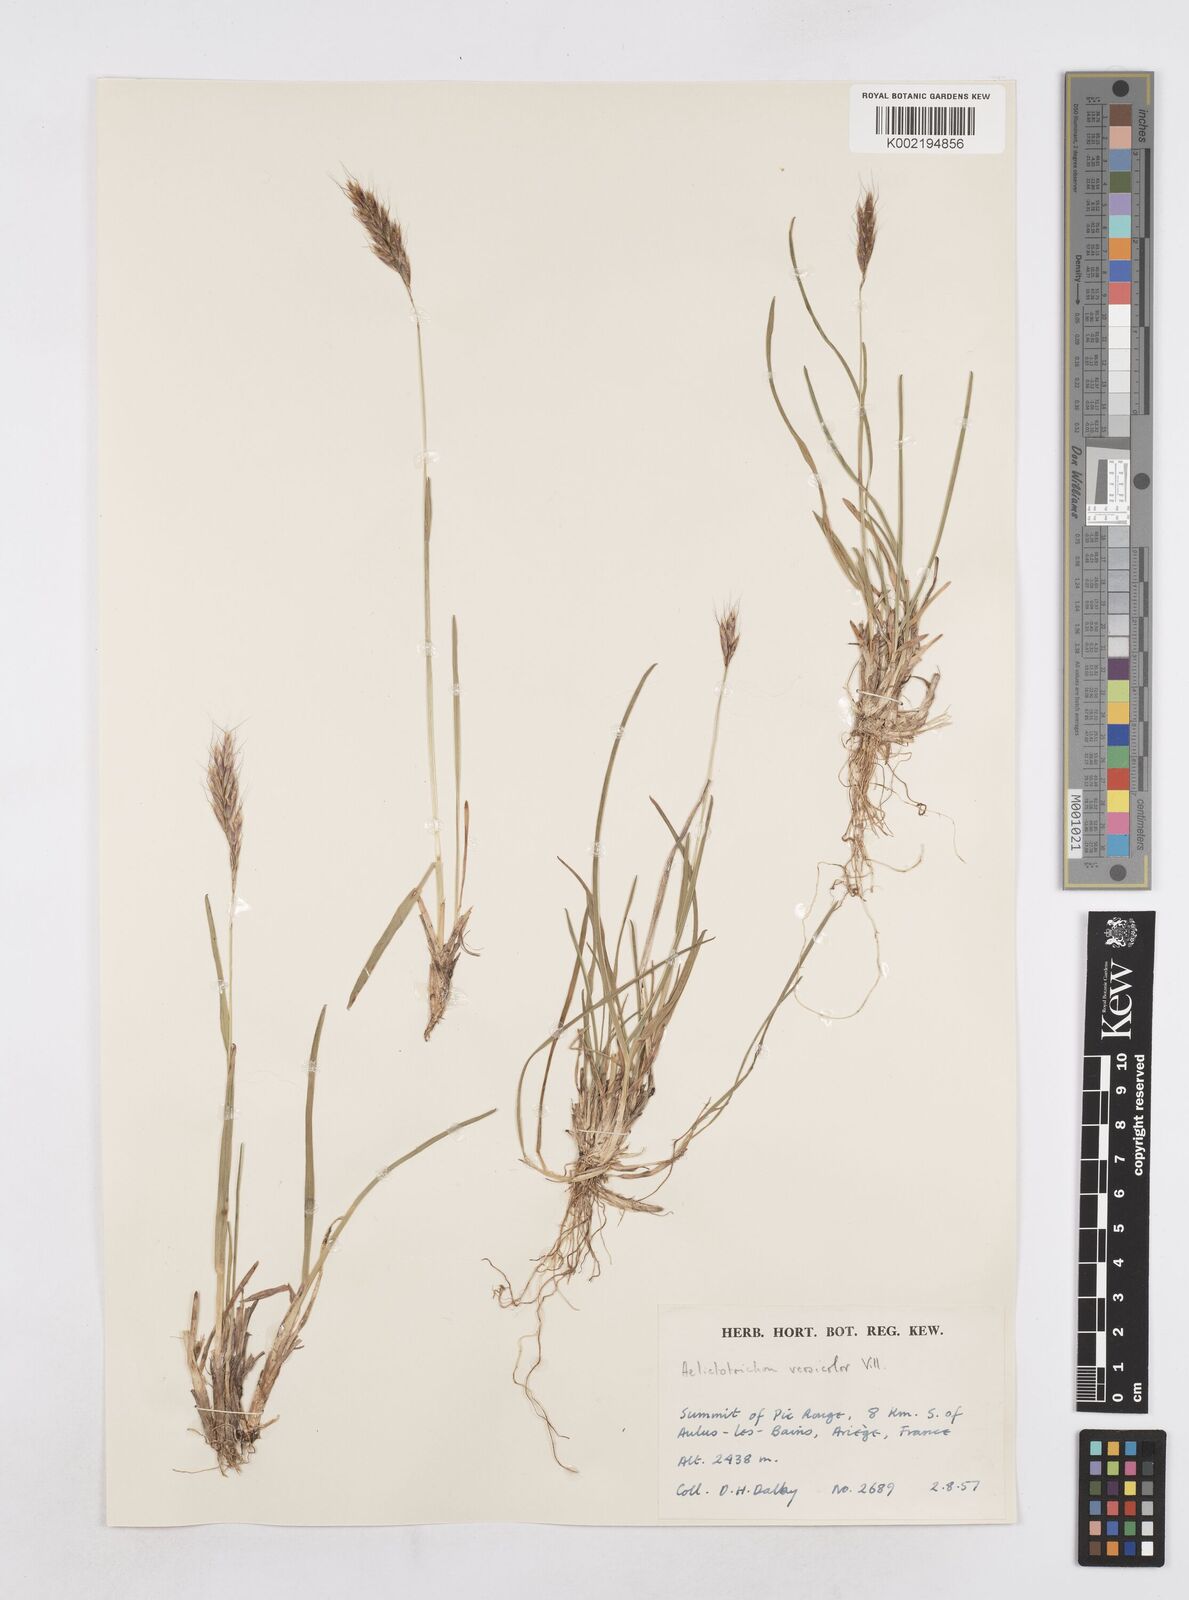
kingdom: Plantae
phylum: Tracheophyta
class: Liliopsida
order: Poales
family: Poaceae
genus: Helictochloa
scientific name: Helictochloa versicolor
